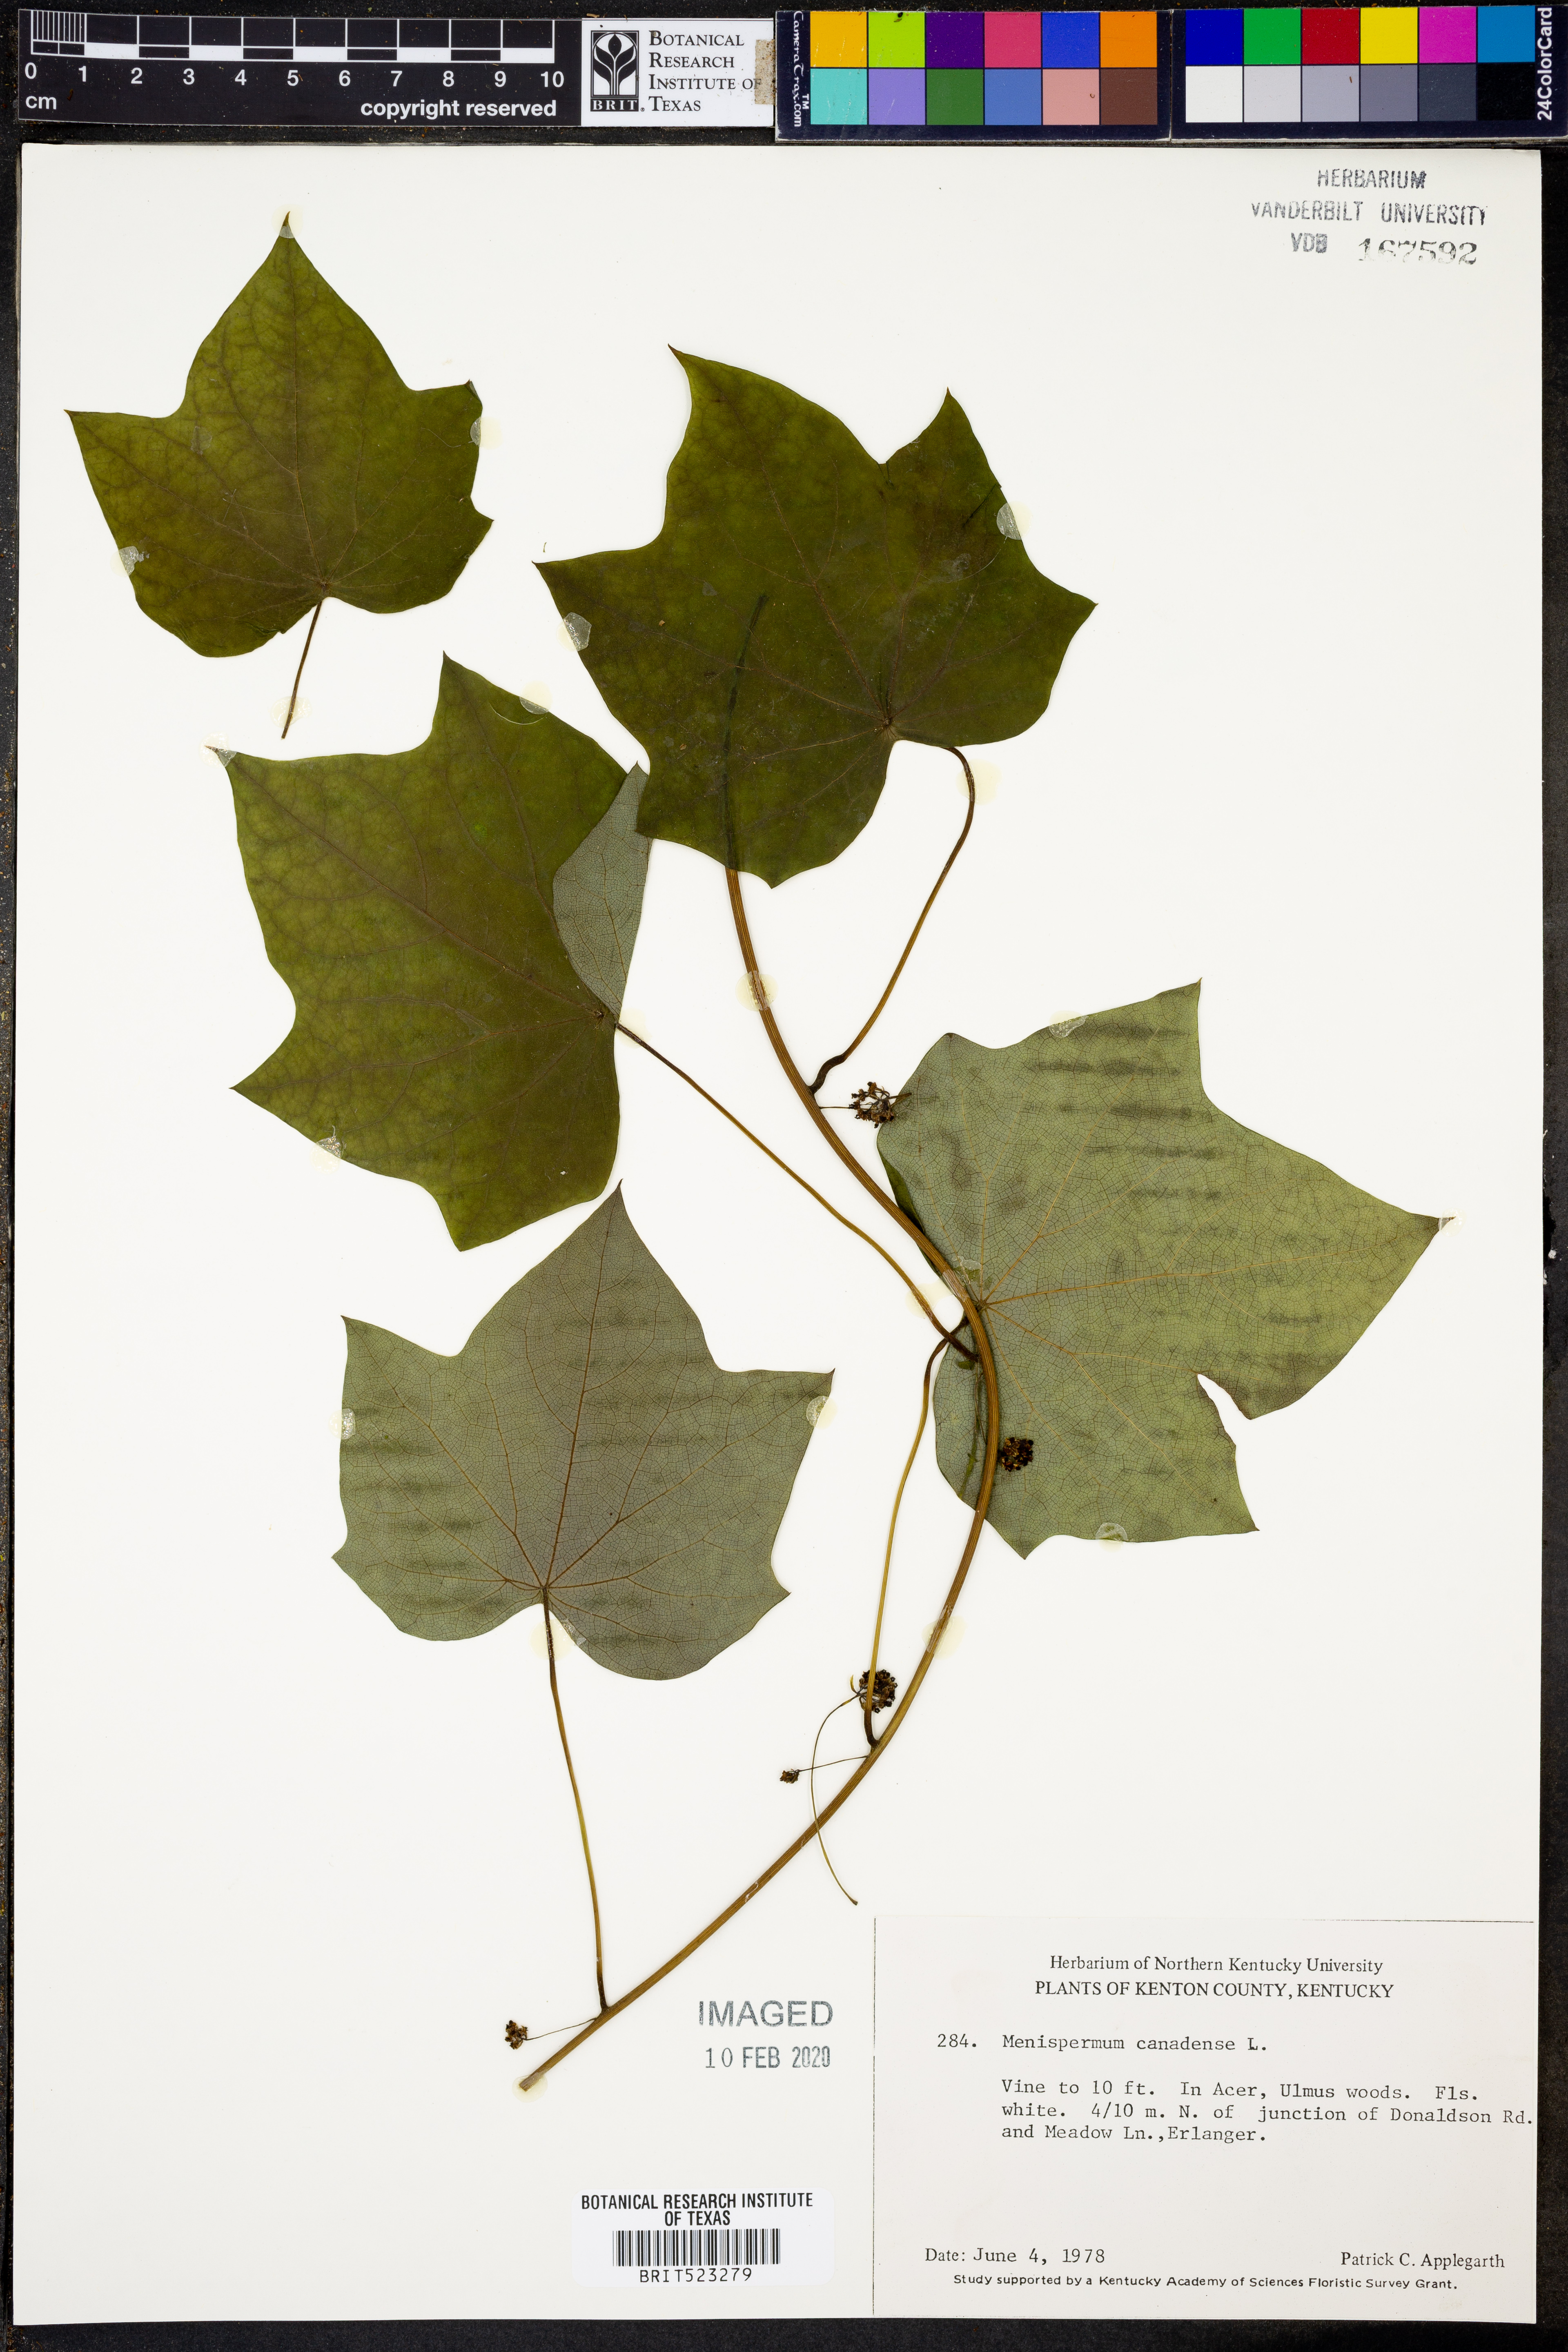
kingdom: Plantae
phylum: Tracheophyta
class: Magnoliopsida
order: Ranunculales
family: Menispermaceae
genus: Menispermum
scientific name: Menispermum canadense
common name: Moonseed
